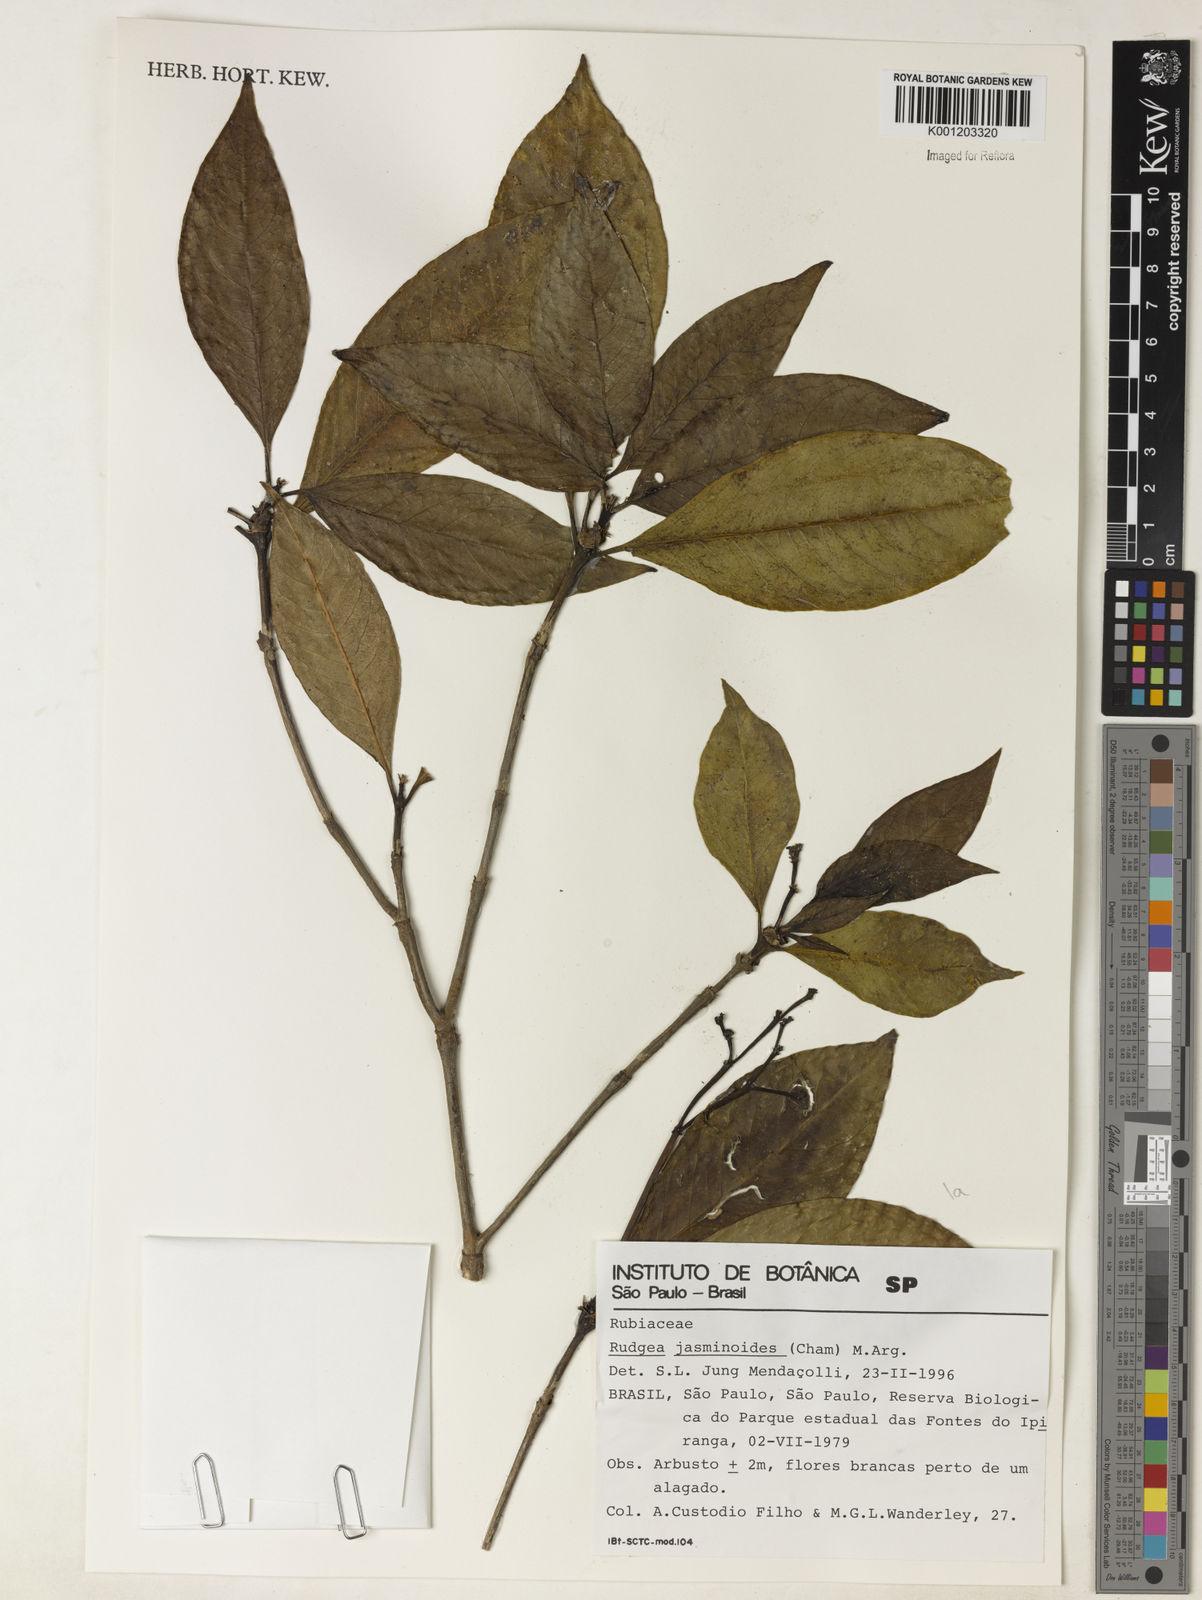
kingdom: Plantae
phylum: Tracheophyta
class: Magnoliopsida
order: Gentianales
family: Rubiaceae
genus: Rudgea
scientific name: Rudgea
